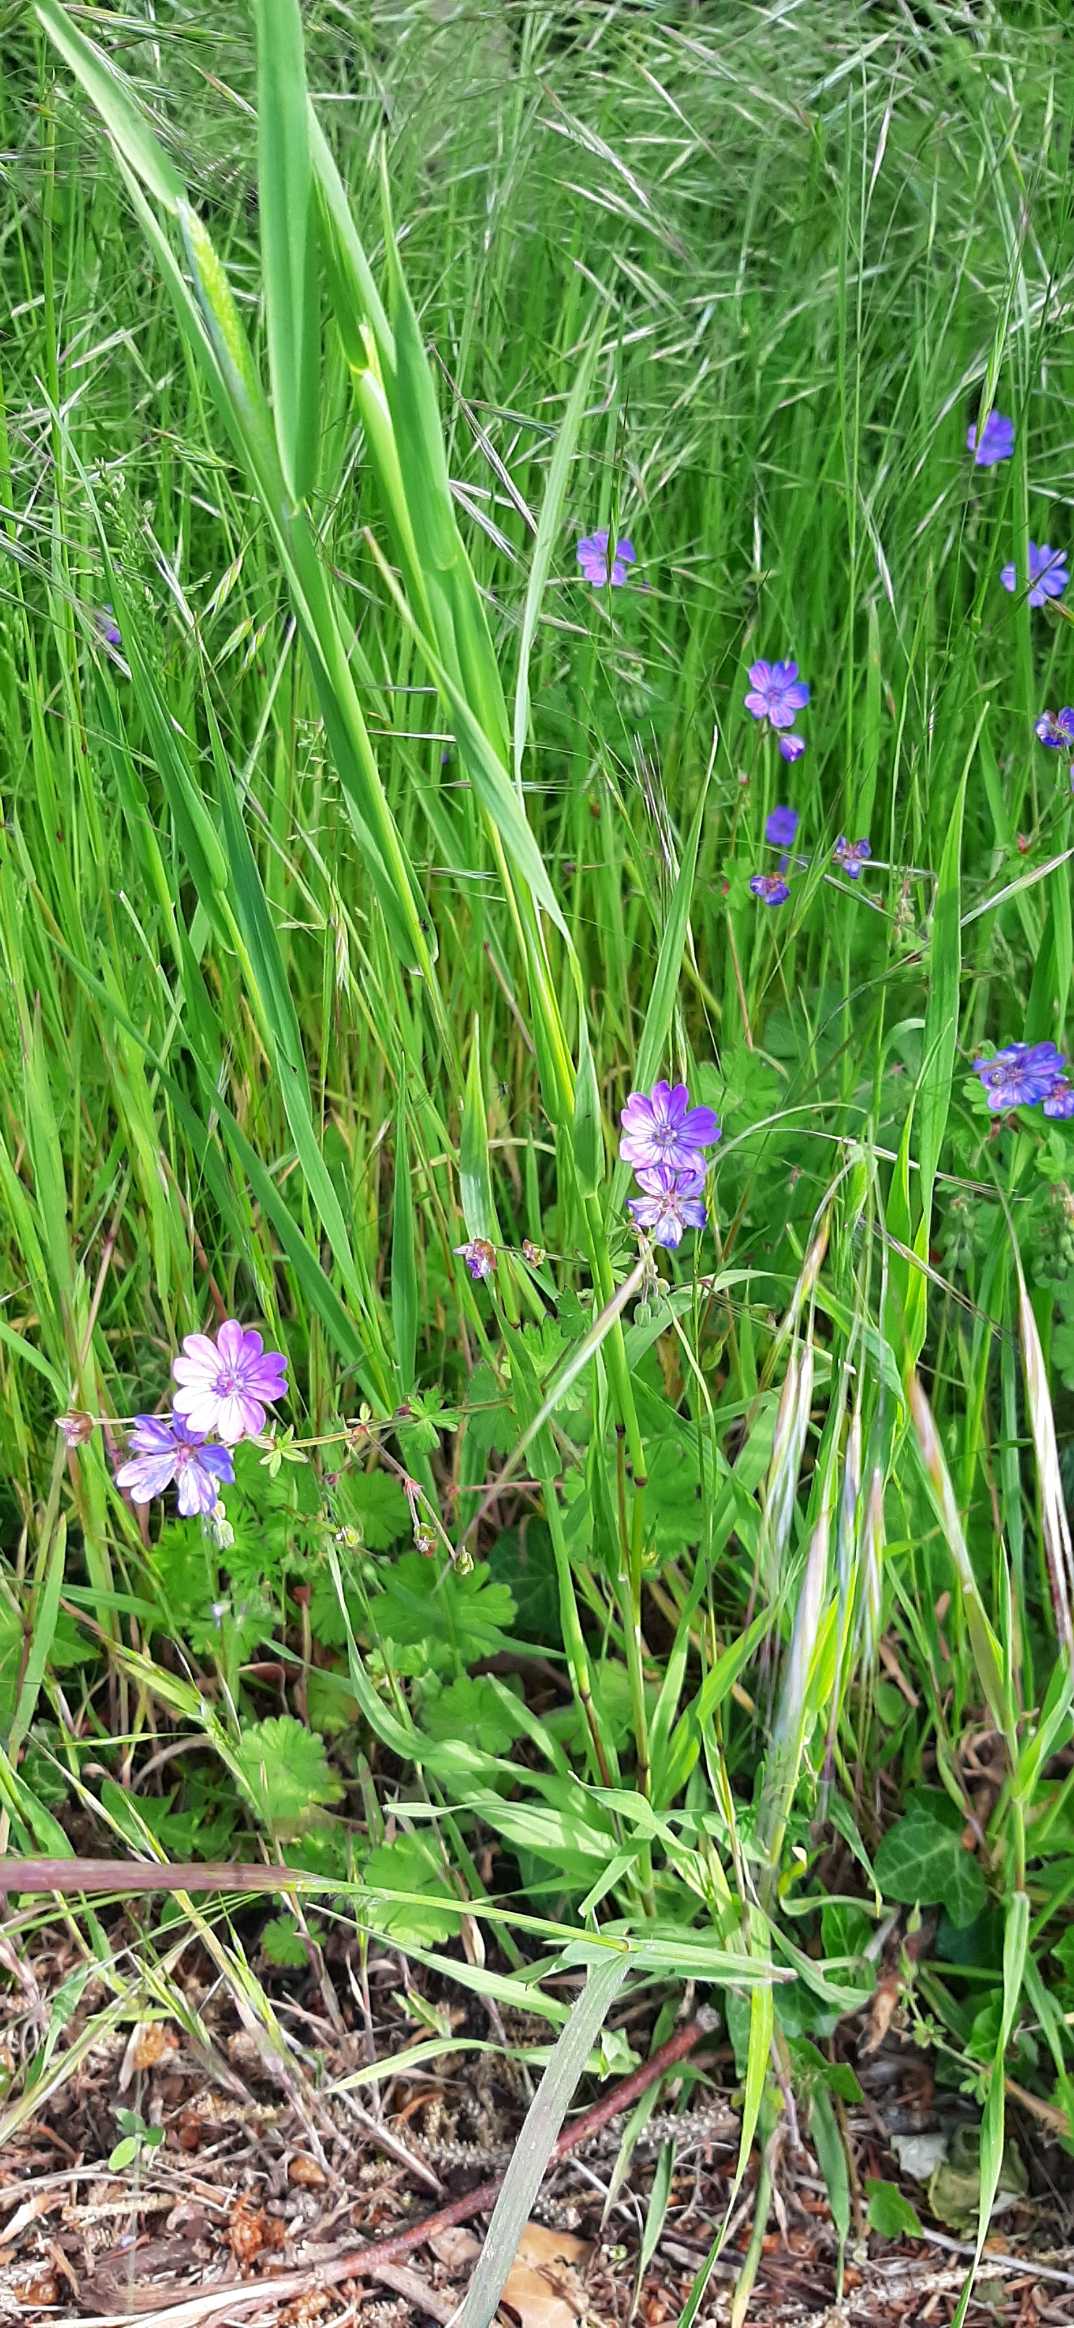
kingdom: Plantae
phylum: Tracheophyta
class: Magnoliopsida
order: Geraniales
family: Geraniaceae
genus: Geranium
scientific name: Geranium molle
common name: Blød storkenæb
